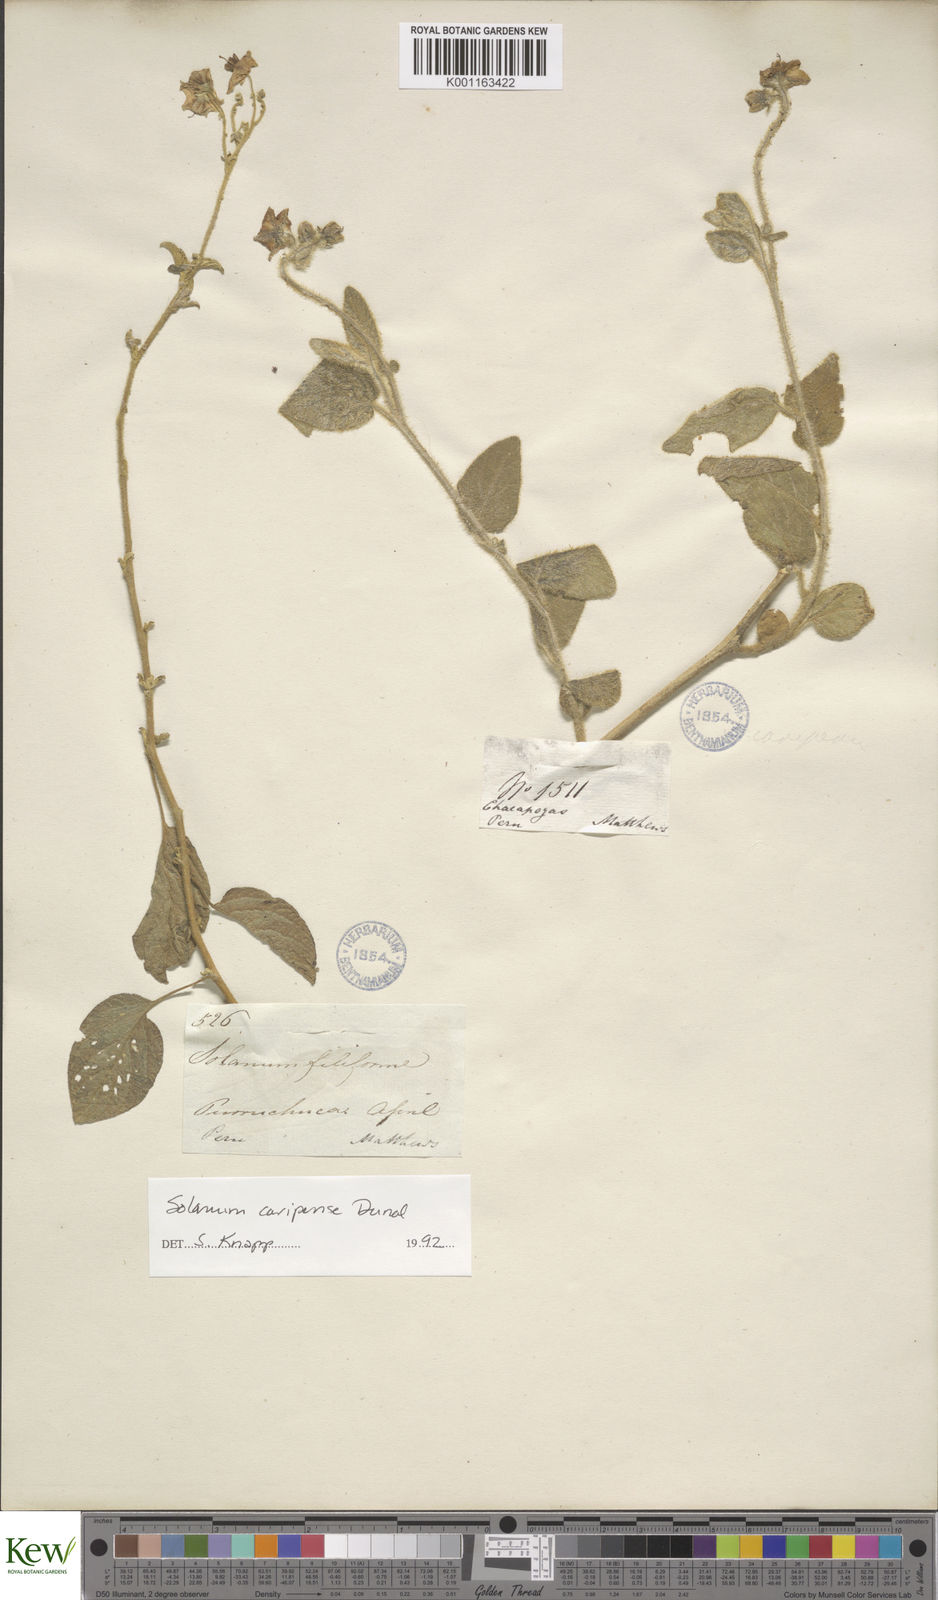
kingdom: Plantae
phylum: Tracheophyta
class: Magnoliopsida
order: Solanales
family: Solanaceae
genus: Solanum
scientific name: Solanum caripense
